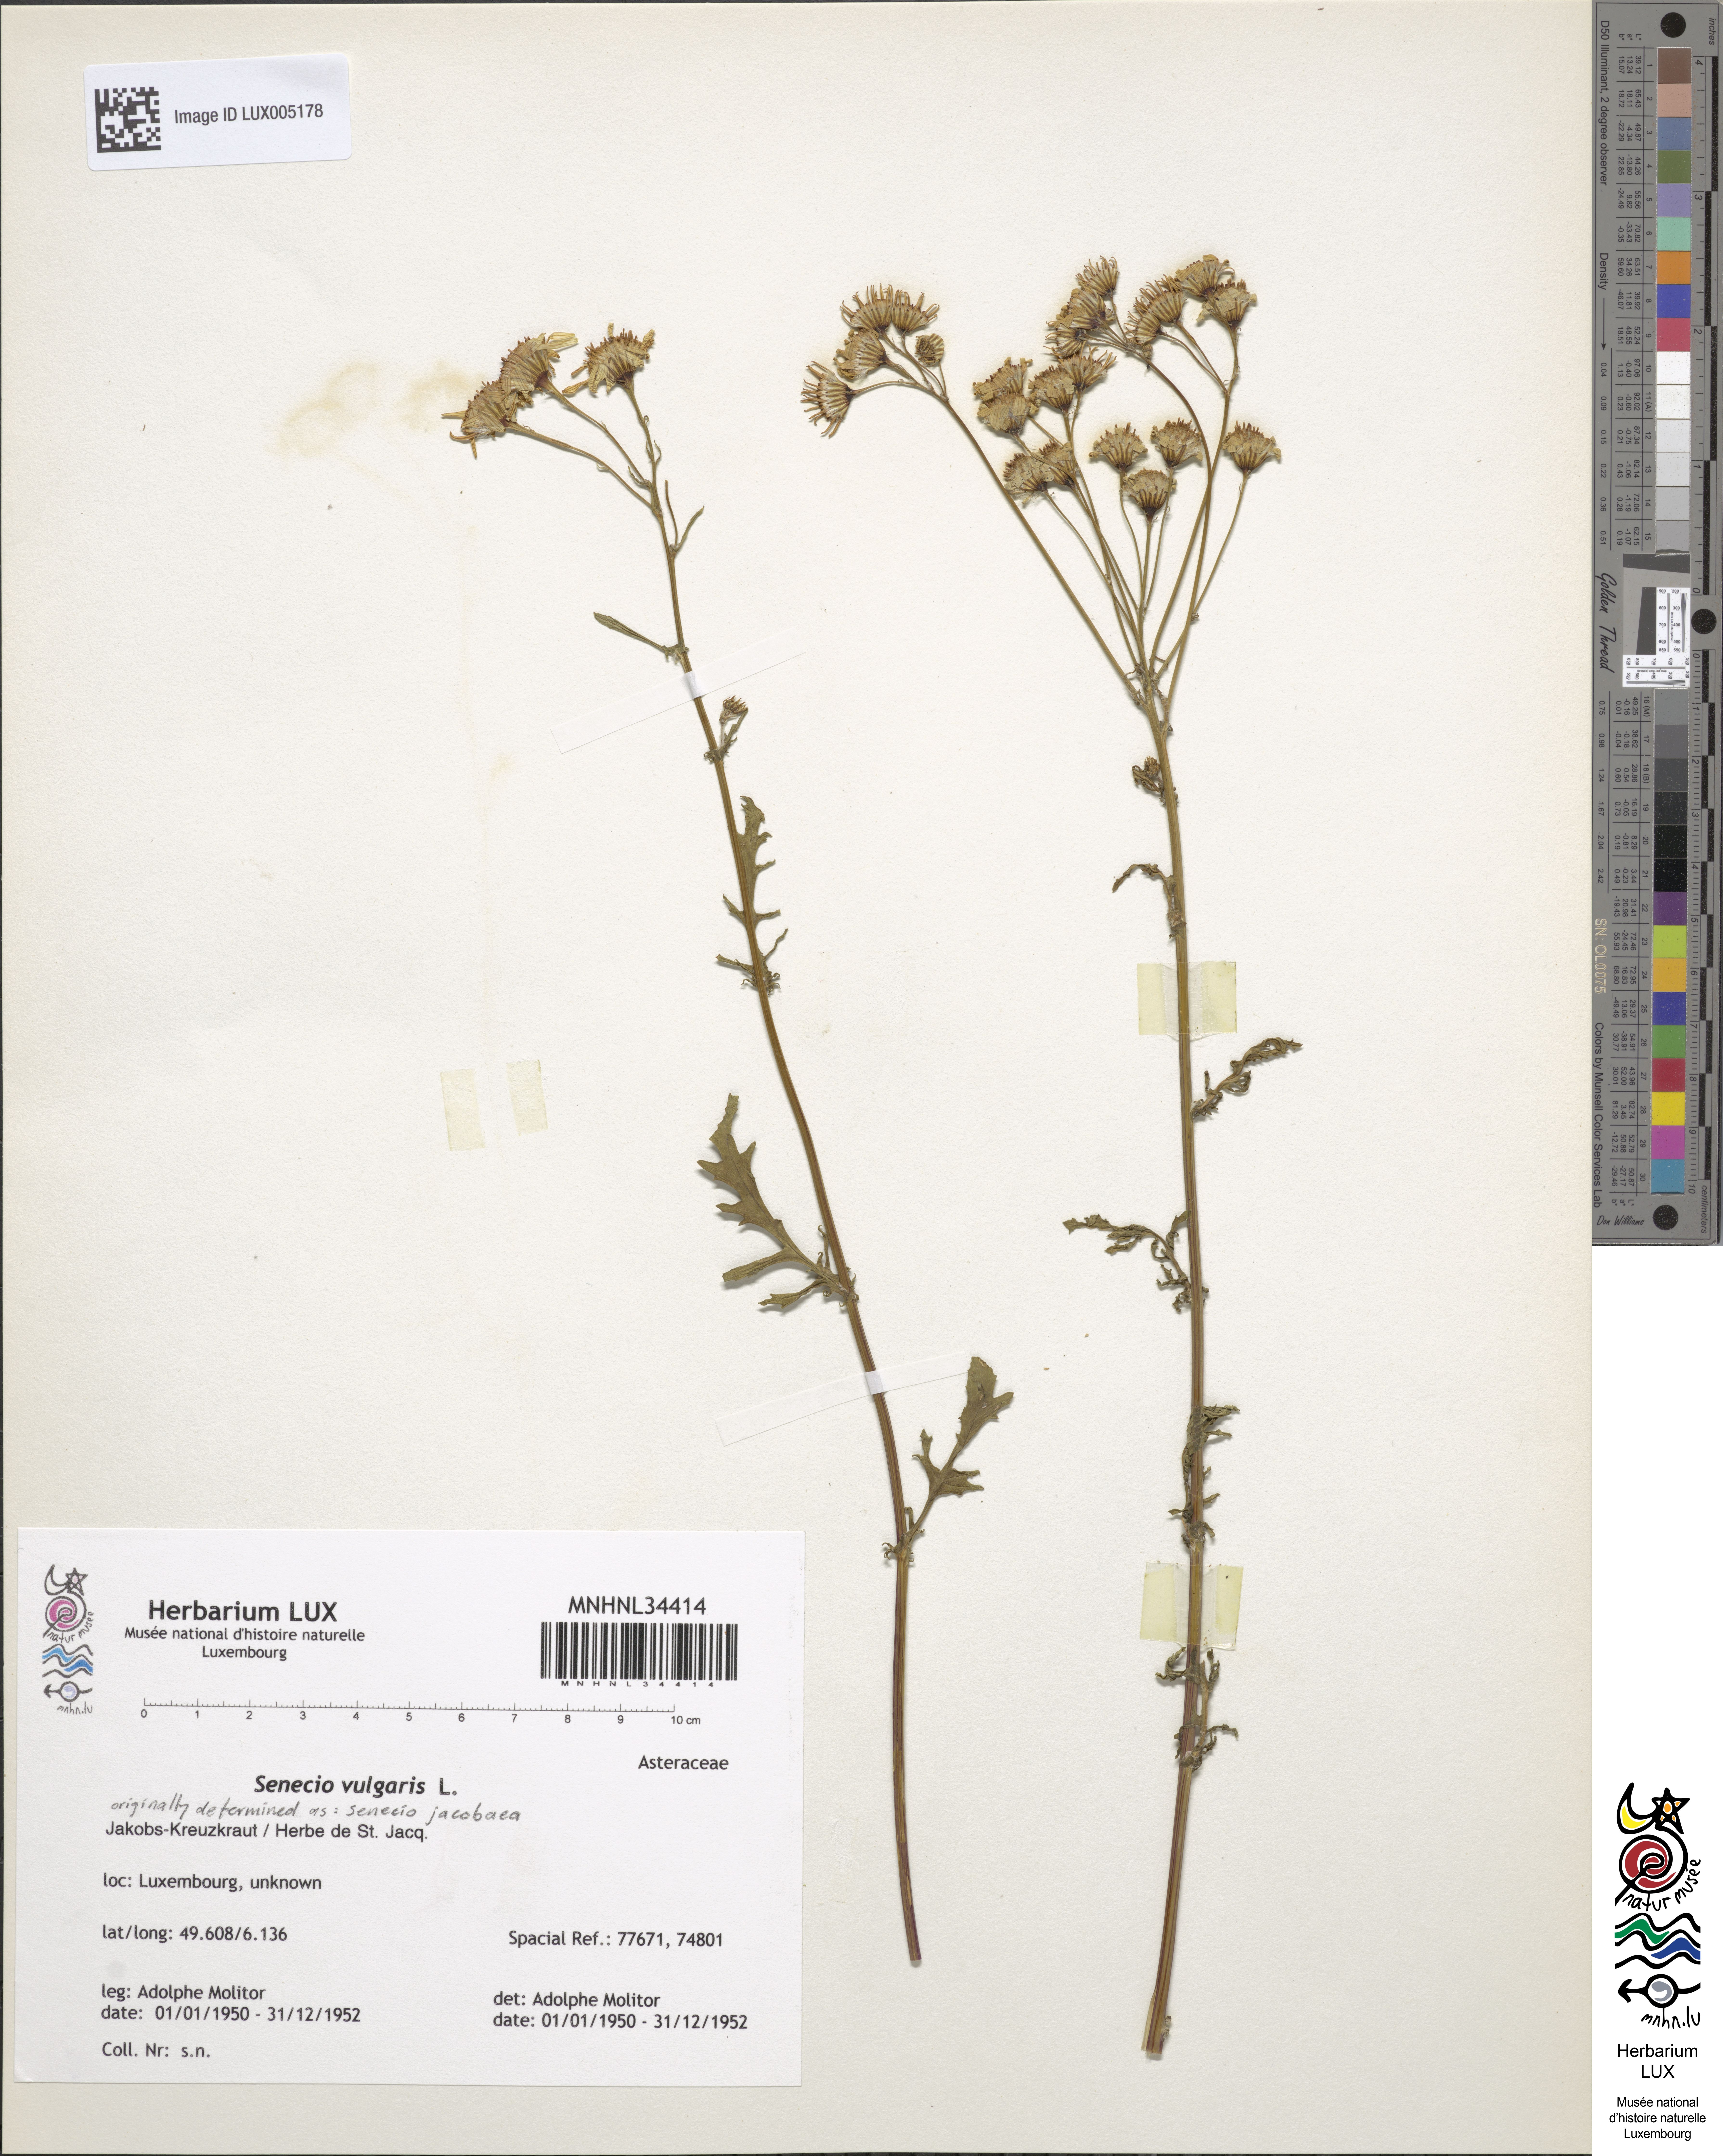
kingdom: Plantae
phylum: Tracheophyta
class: Magnoliopsida
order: Asterales
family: Asteraceae
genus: Senecio
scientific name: Senecio vulgaris
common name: Old-man-in-the-spring
